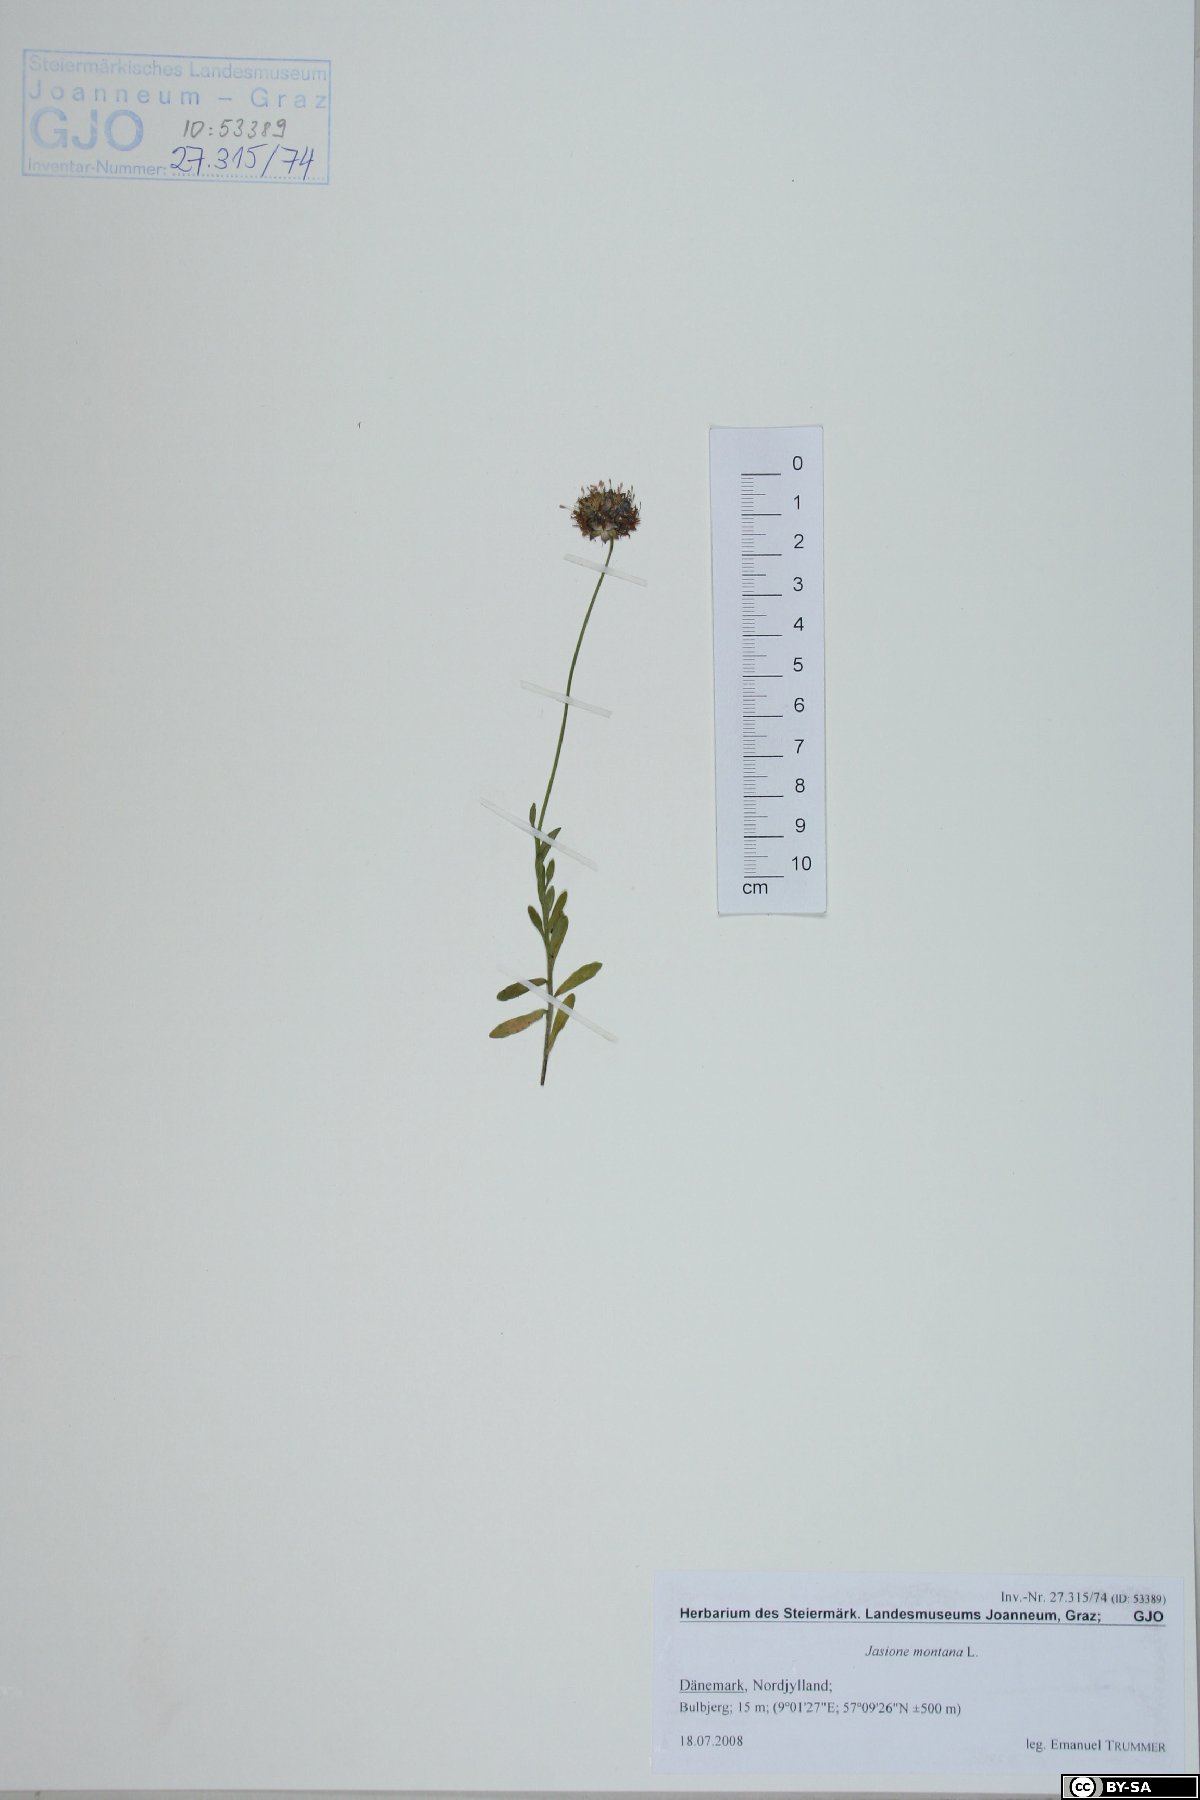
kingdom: Plantae
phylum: Tracheophyta
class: Magnoliopsida
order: Asterales
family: Campanulaceae
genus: Jasione
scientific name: Jasione montana
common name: Sheep's-bit
